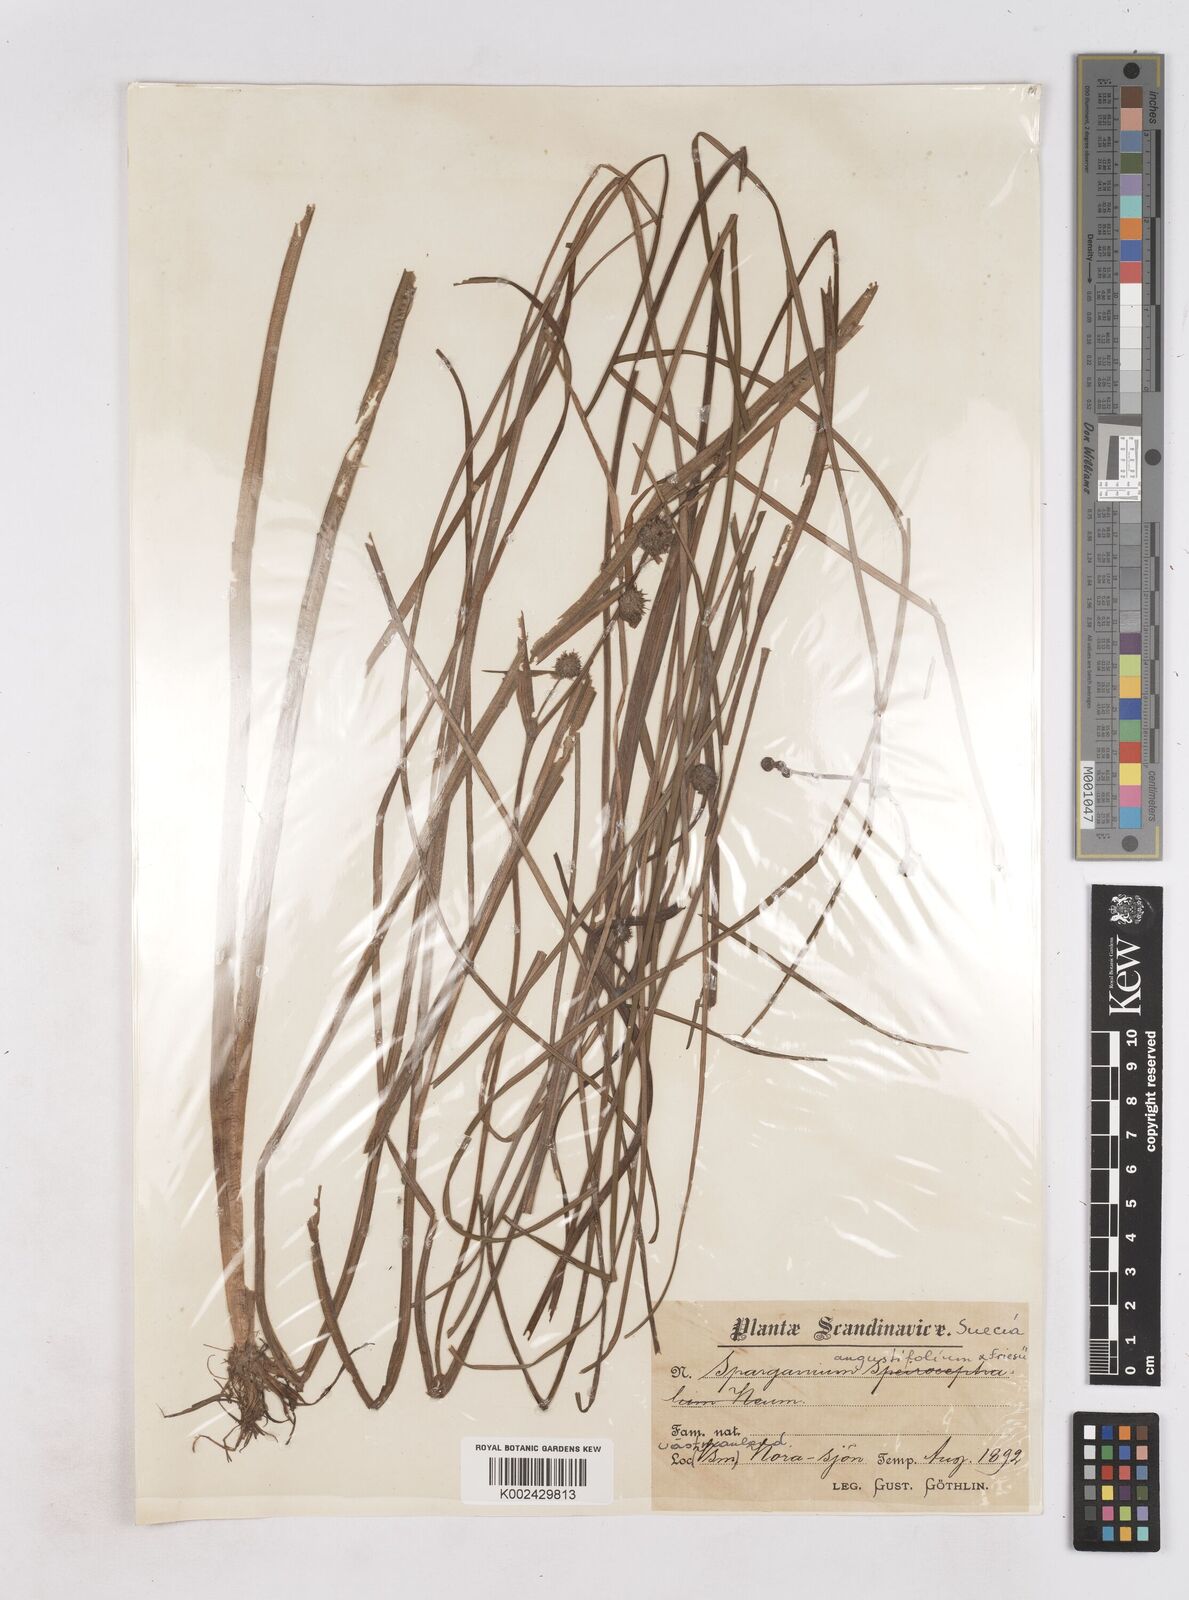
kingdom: Plantae
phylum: Tracheophyta
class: Liliopsida
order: Poales
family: Typhaceae
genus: Sparganium
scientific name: Sparganium
